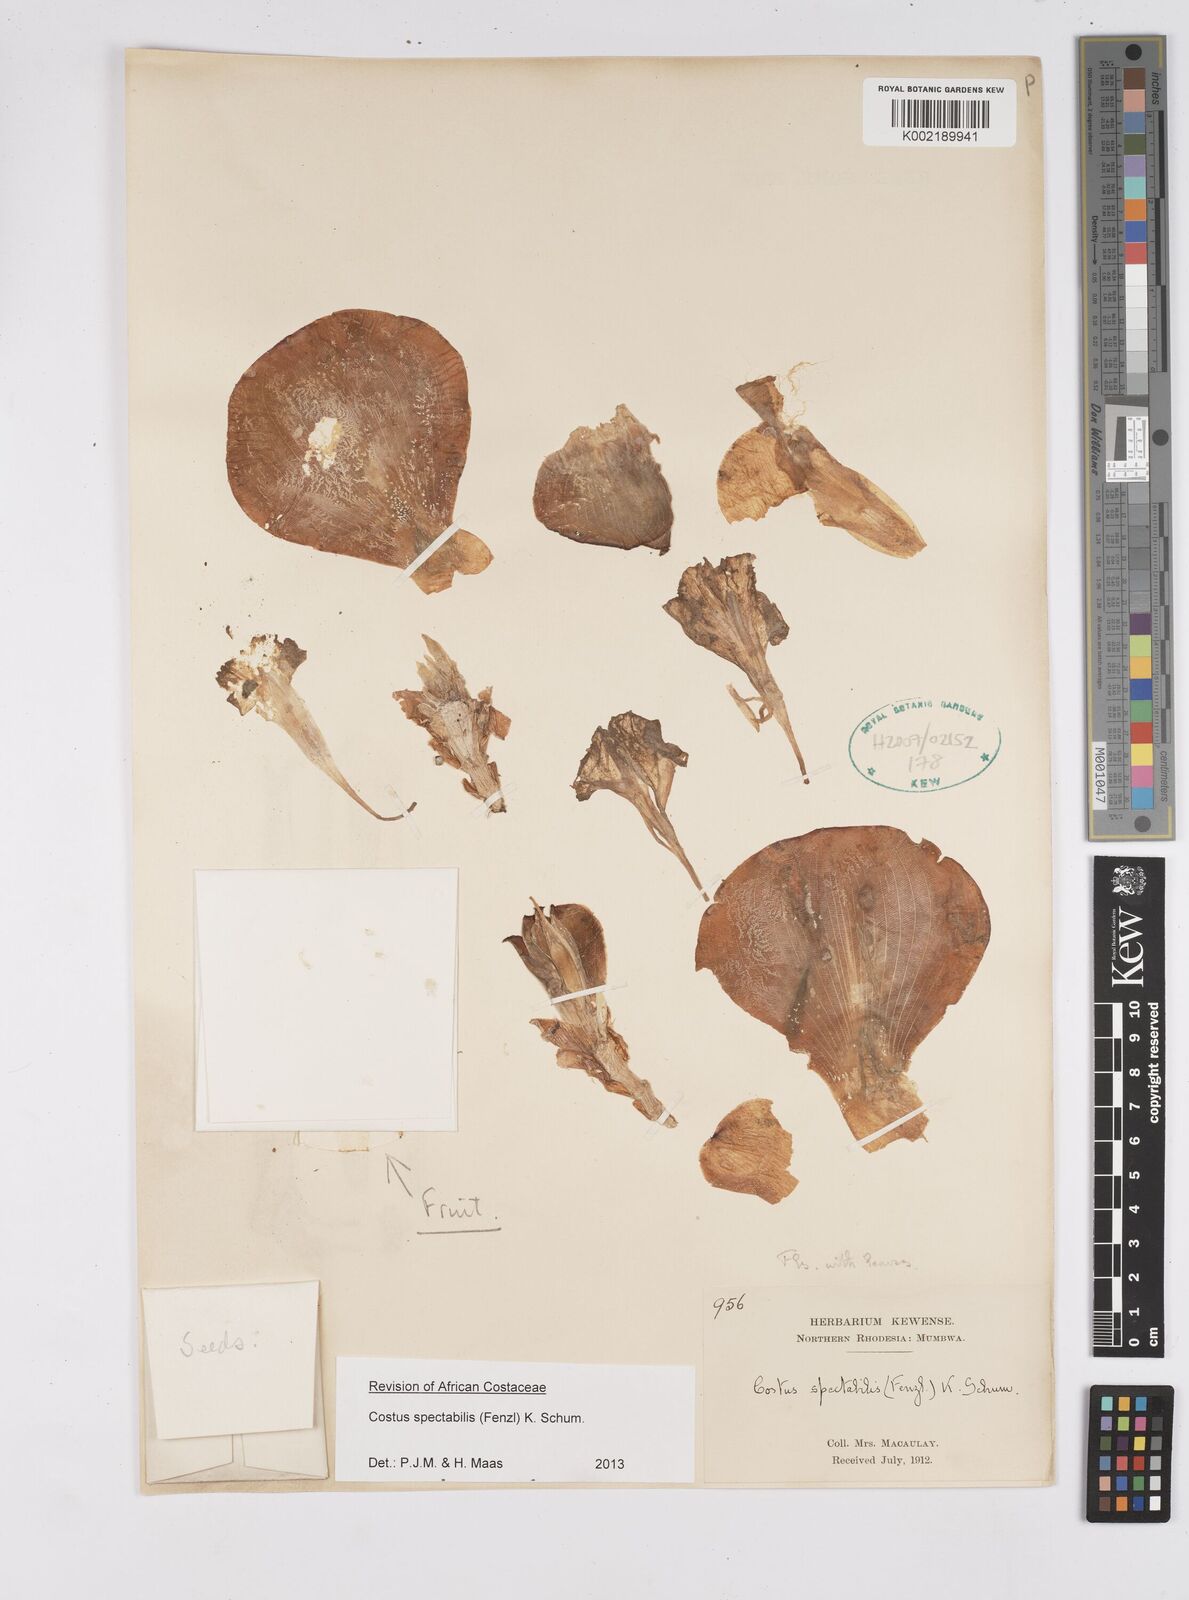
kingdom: Plantae
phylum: Tracheophyta
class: Liliopsida
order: Zingiberales
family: Costaceae
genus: Costus
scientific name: Costus spectabilis
